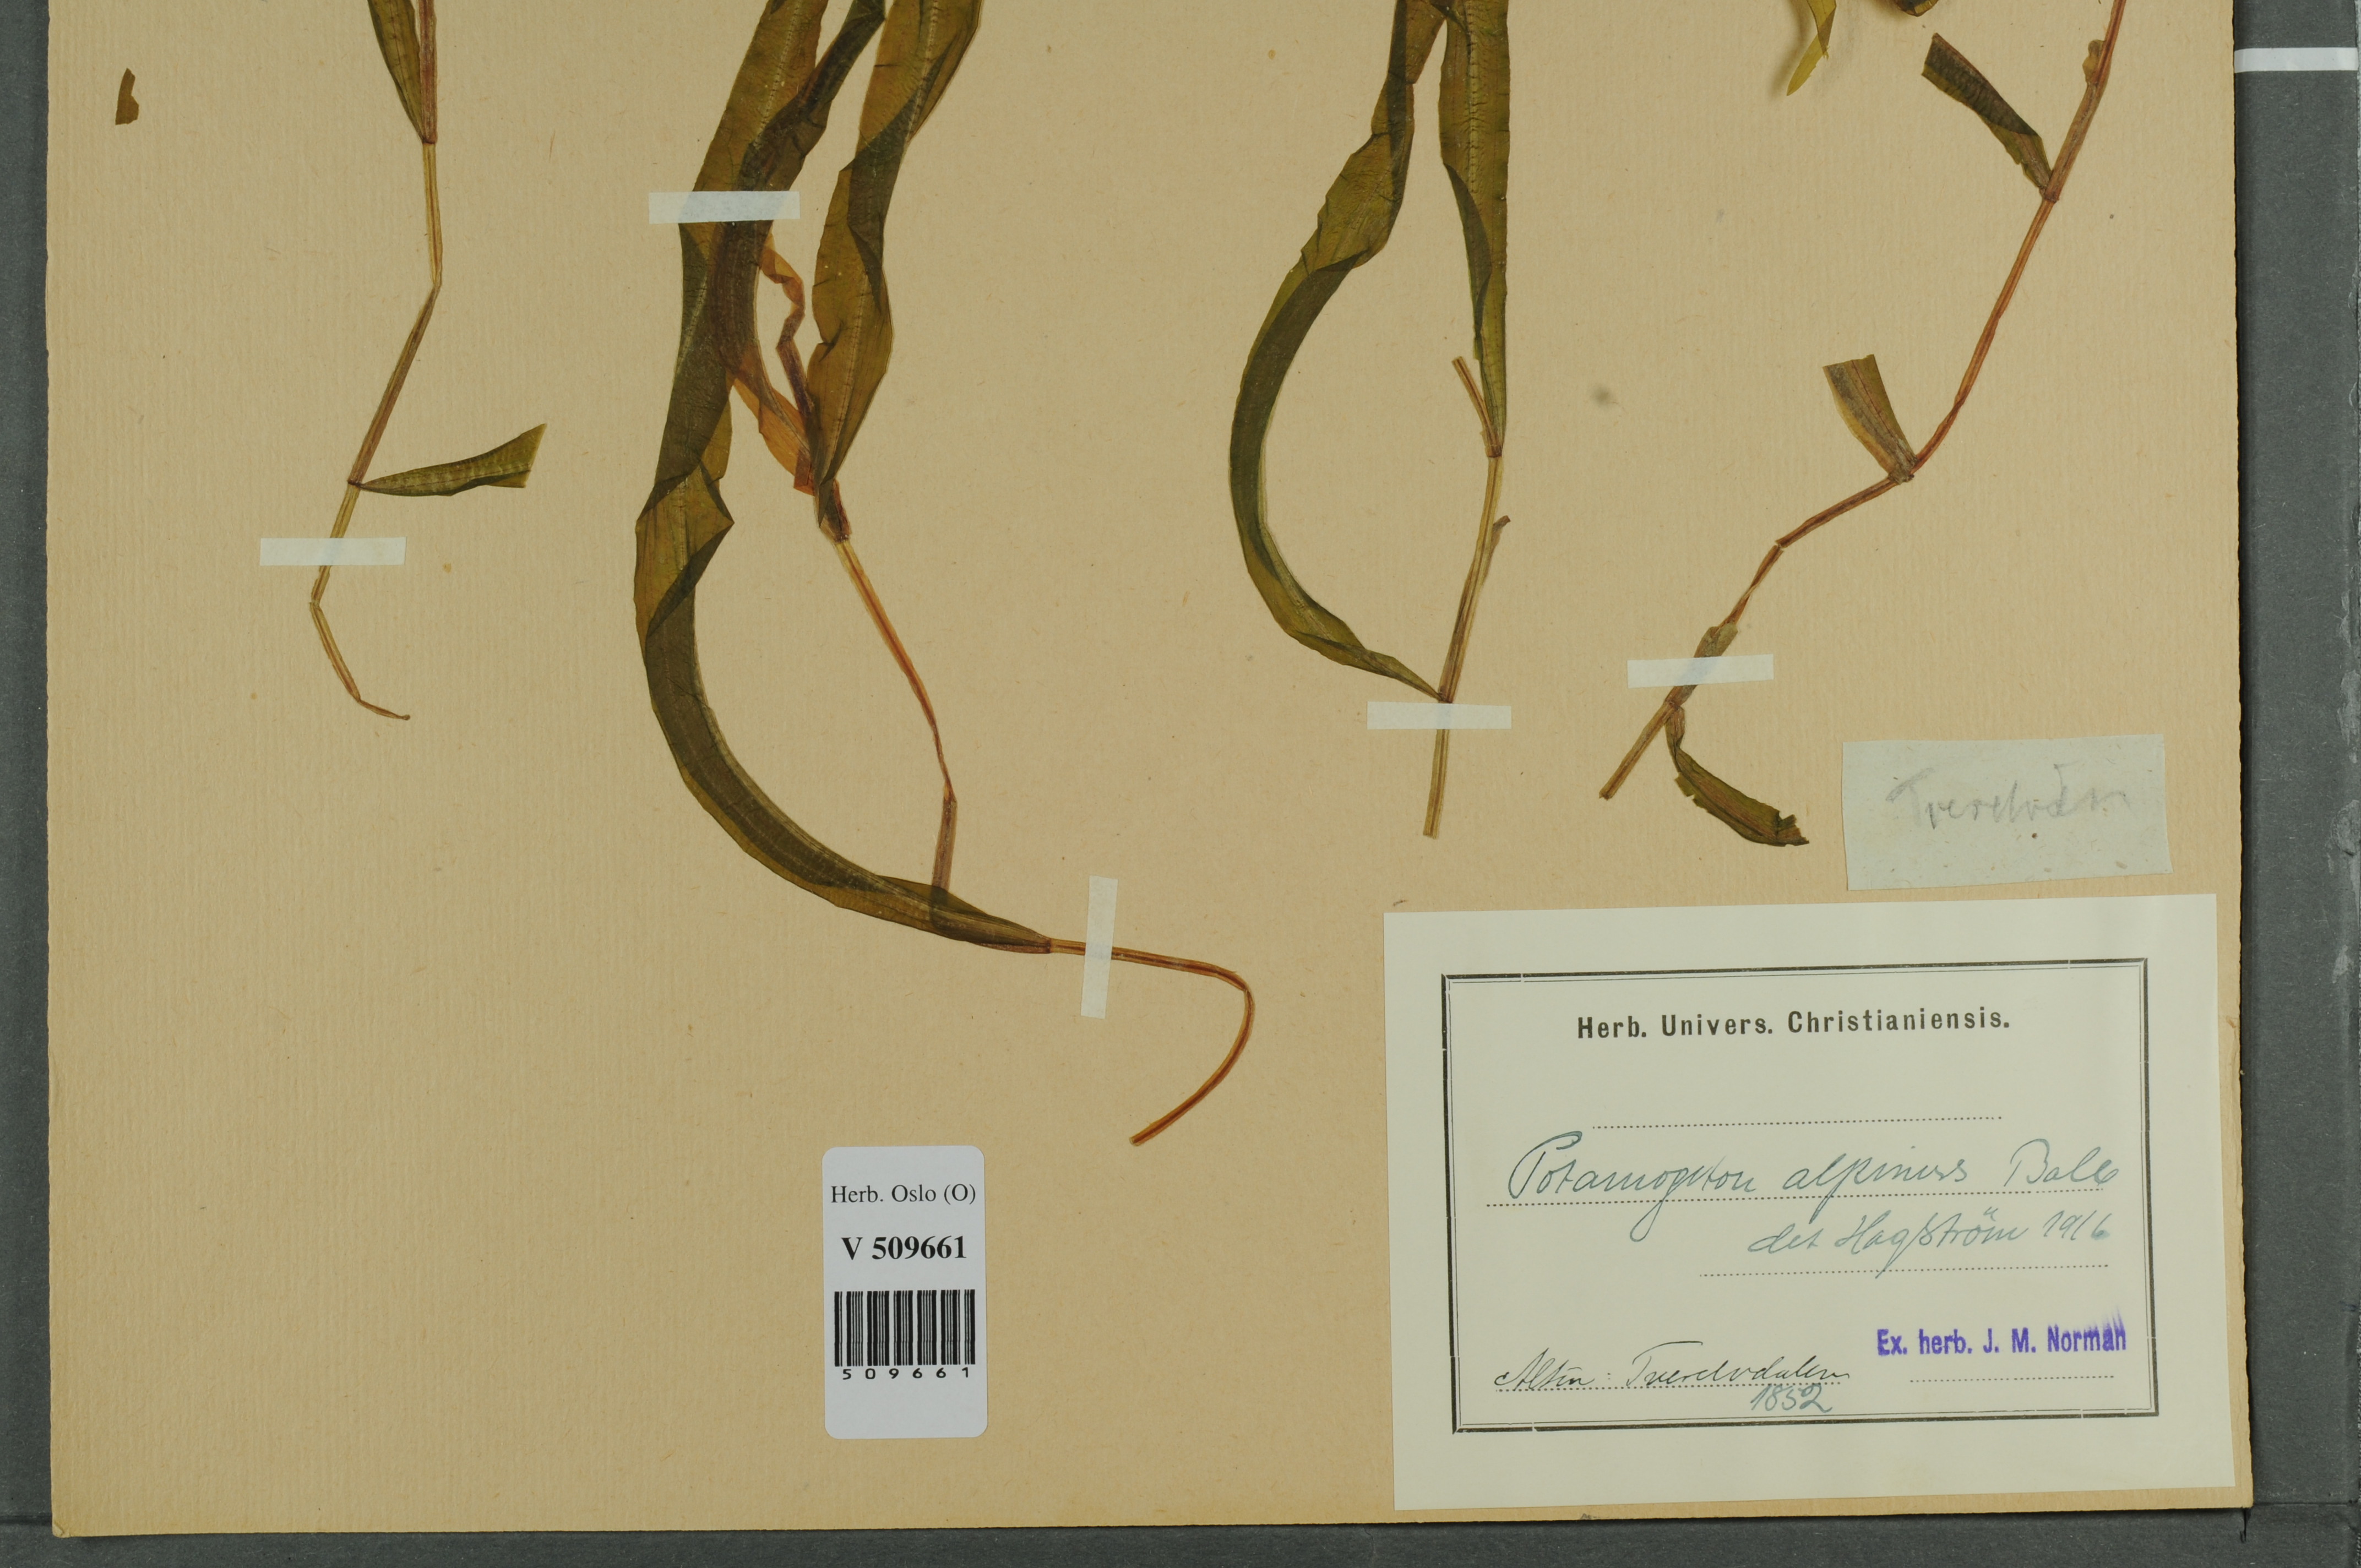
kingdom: Plantae
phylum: Tracheophyta
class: Liliopsida
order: Alismatales
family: Potamogetonaceae
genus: Potamogeton
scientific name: Potamogeton alpinus
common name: Red pondweed
